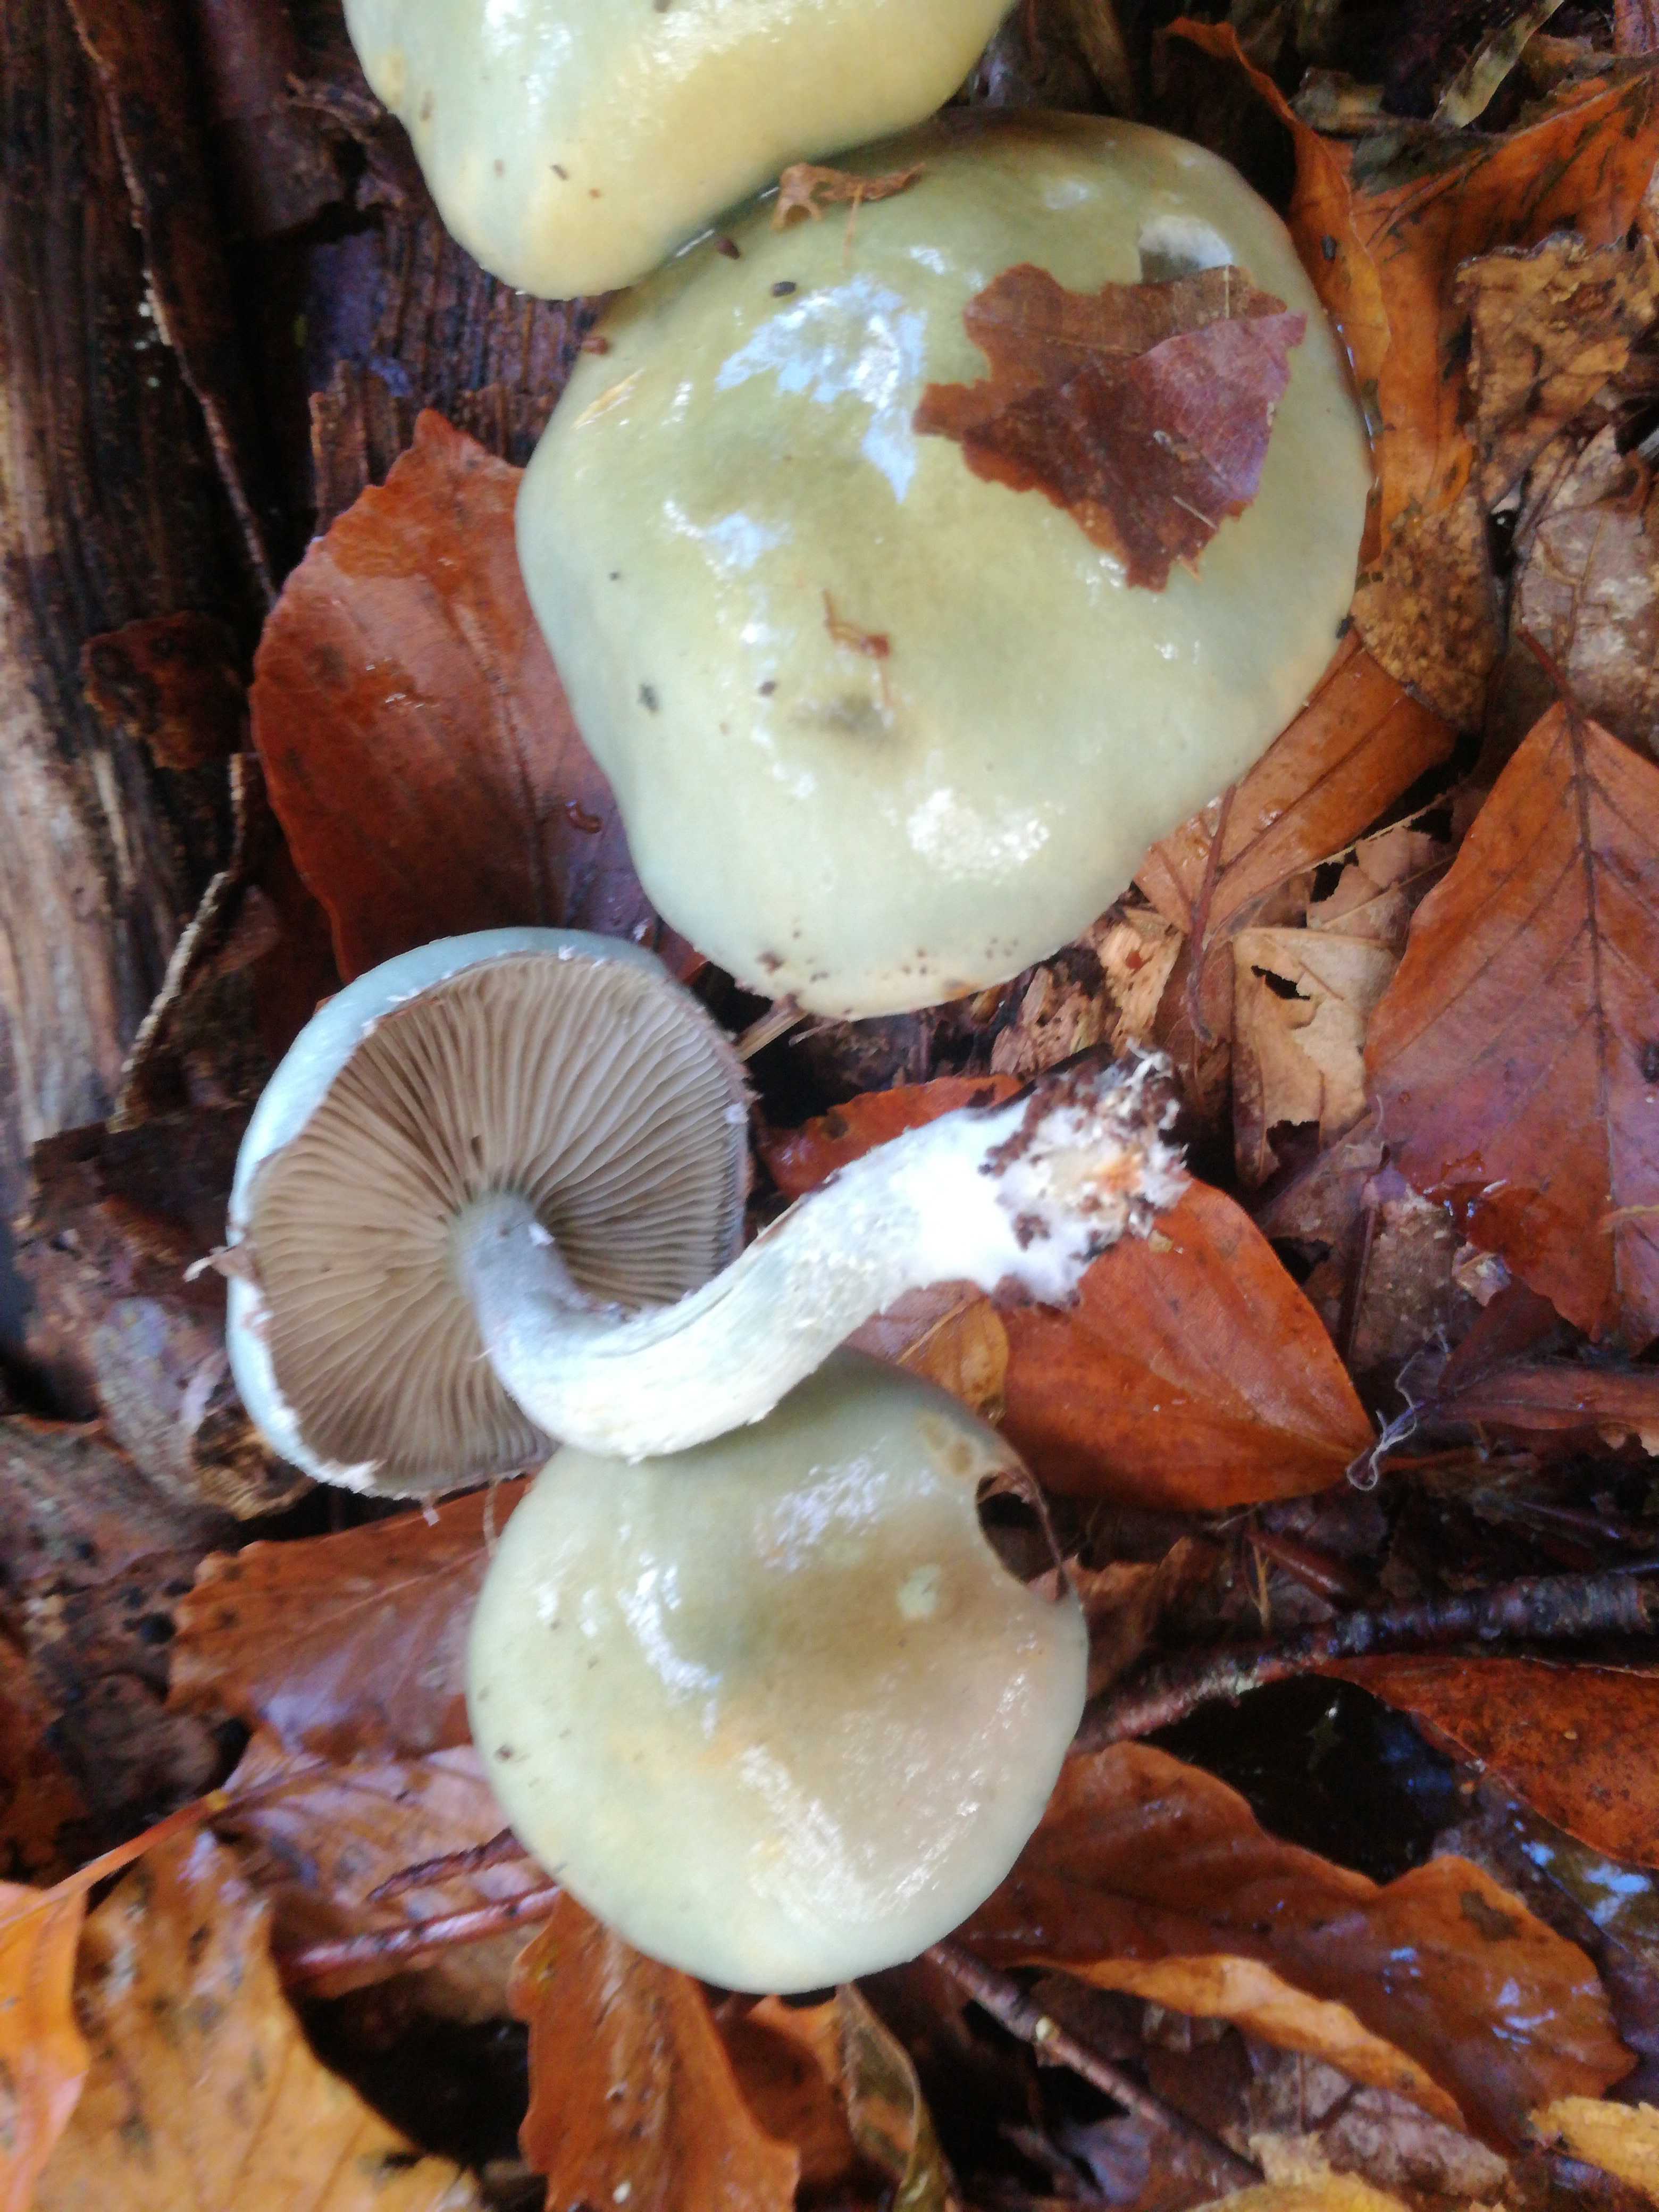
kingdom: Fungi
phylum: Basidiomycota
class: Agaricomycetes
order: Agaricales
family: Strophariaceae
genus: Stropharia
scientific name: Stropharia cyanea
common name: blågrøn bredblad
